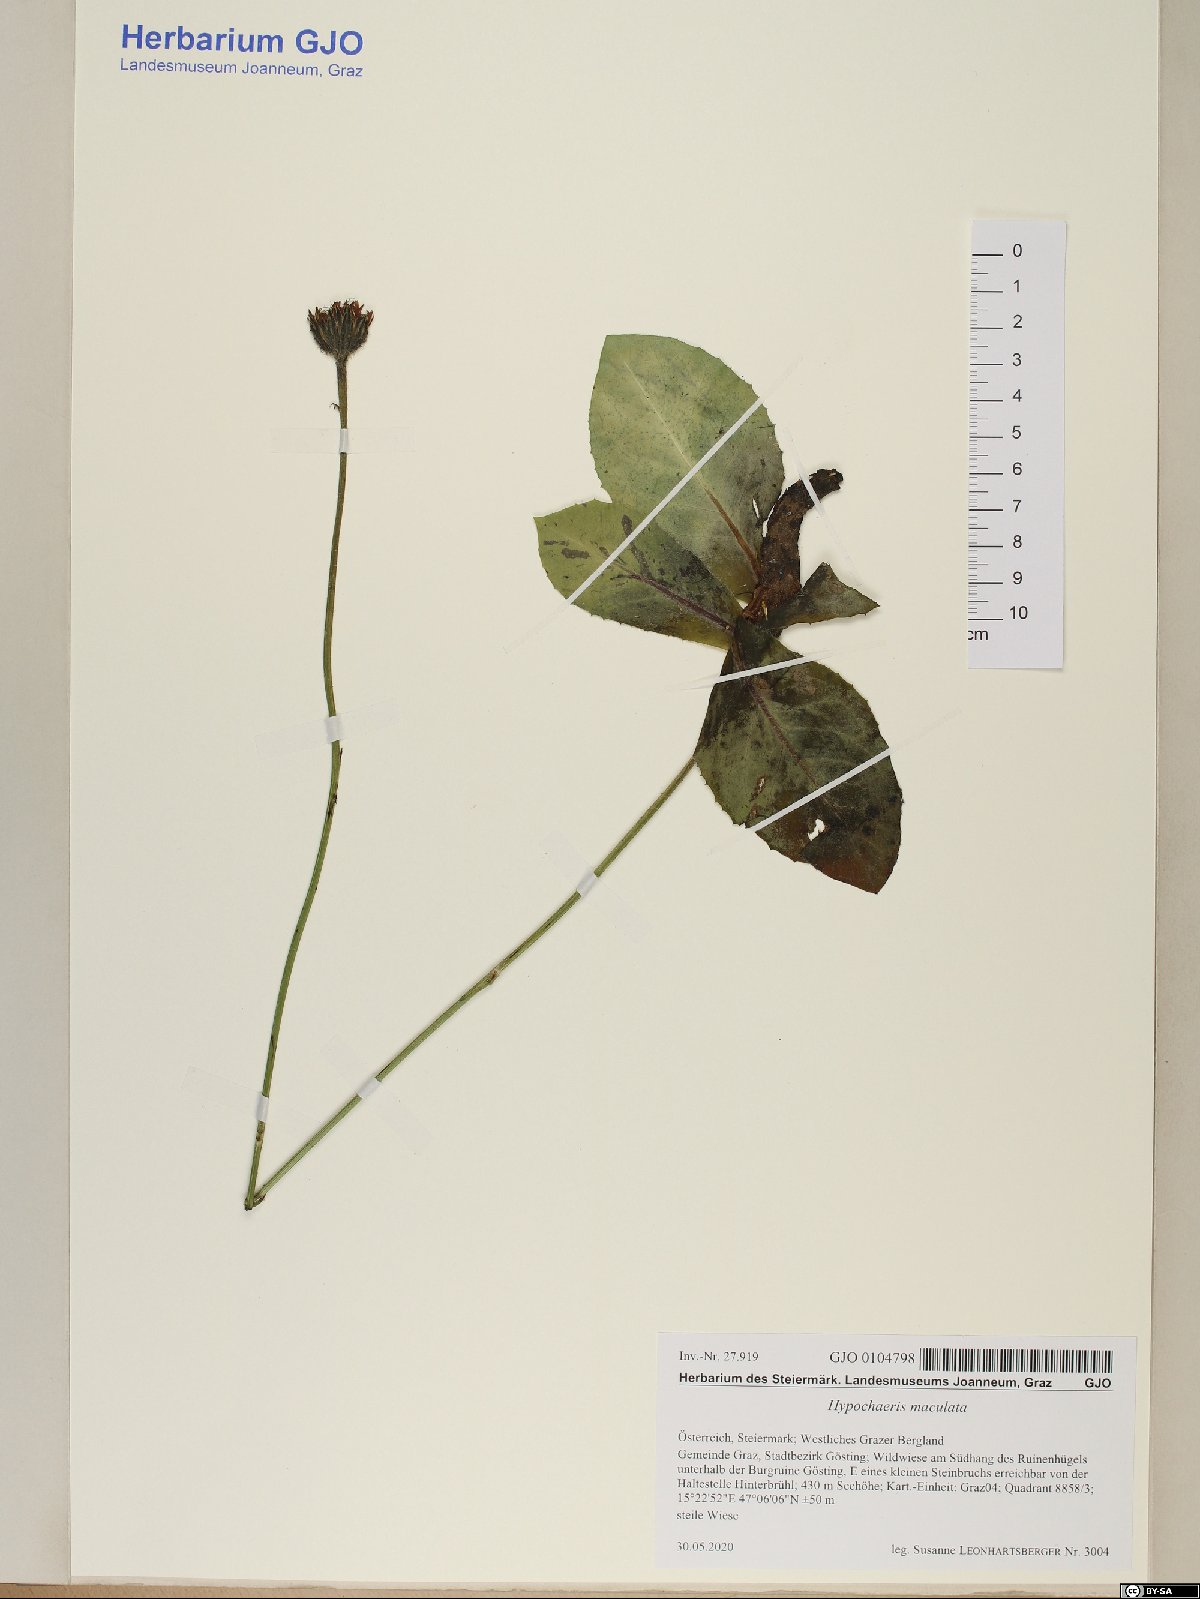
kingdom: Plantae
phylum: Tracheophyta
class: Magnoliopsida
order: Asterales
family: Asteraceae
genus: Trommsdorffia
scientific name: Trommsdorffia maculata
